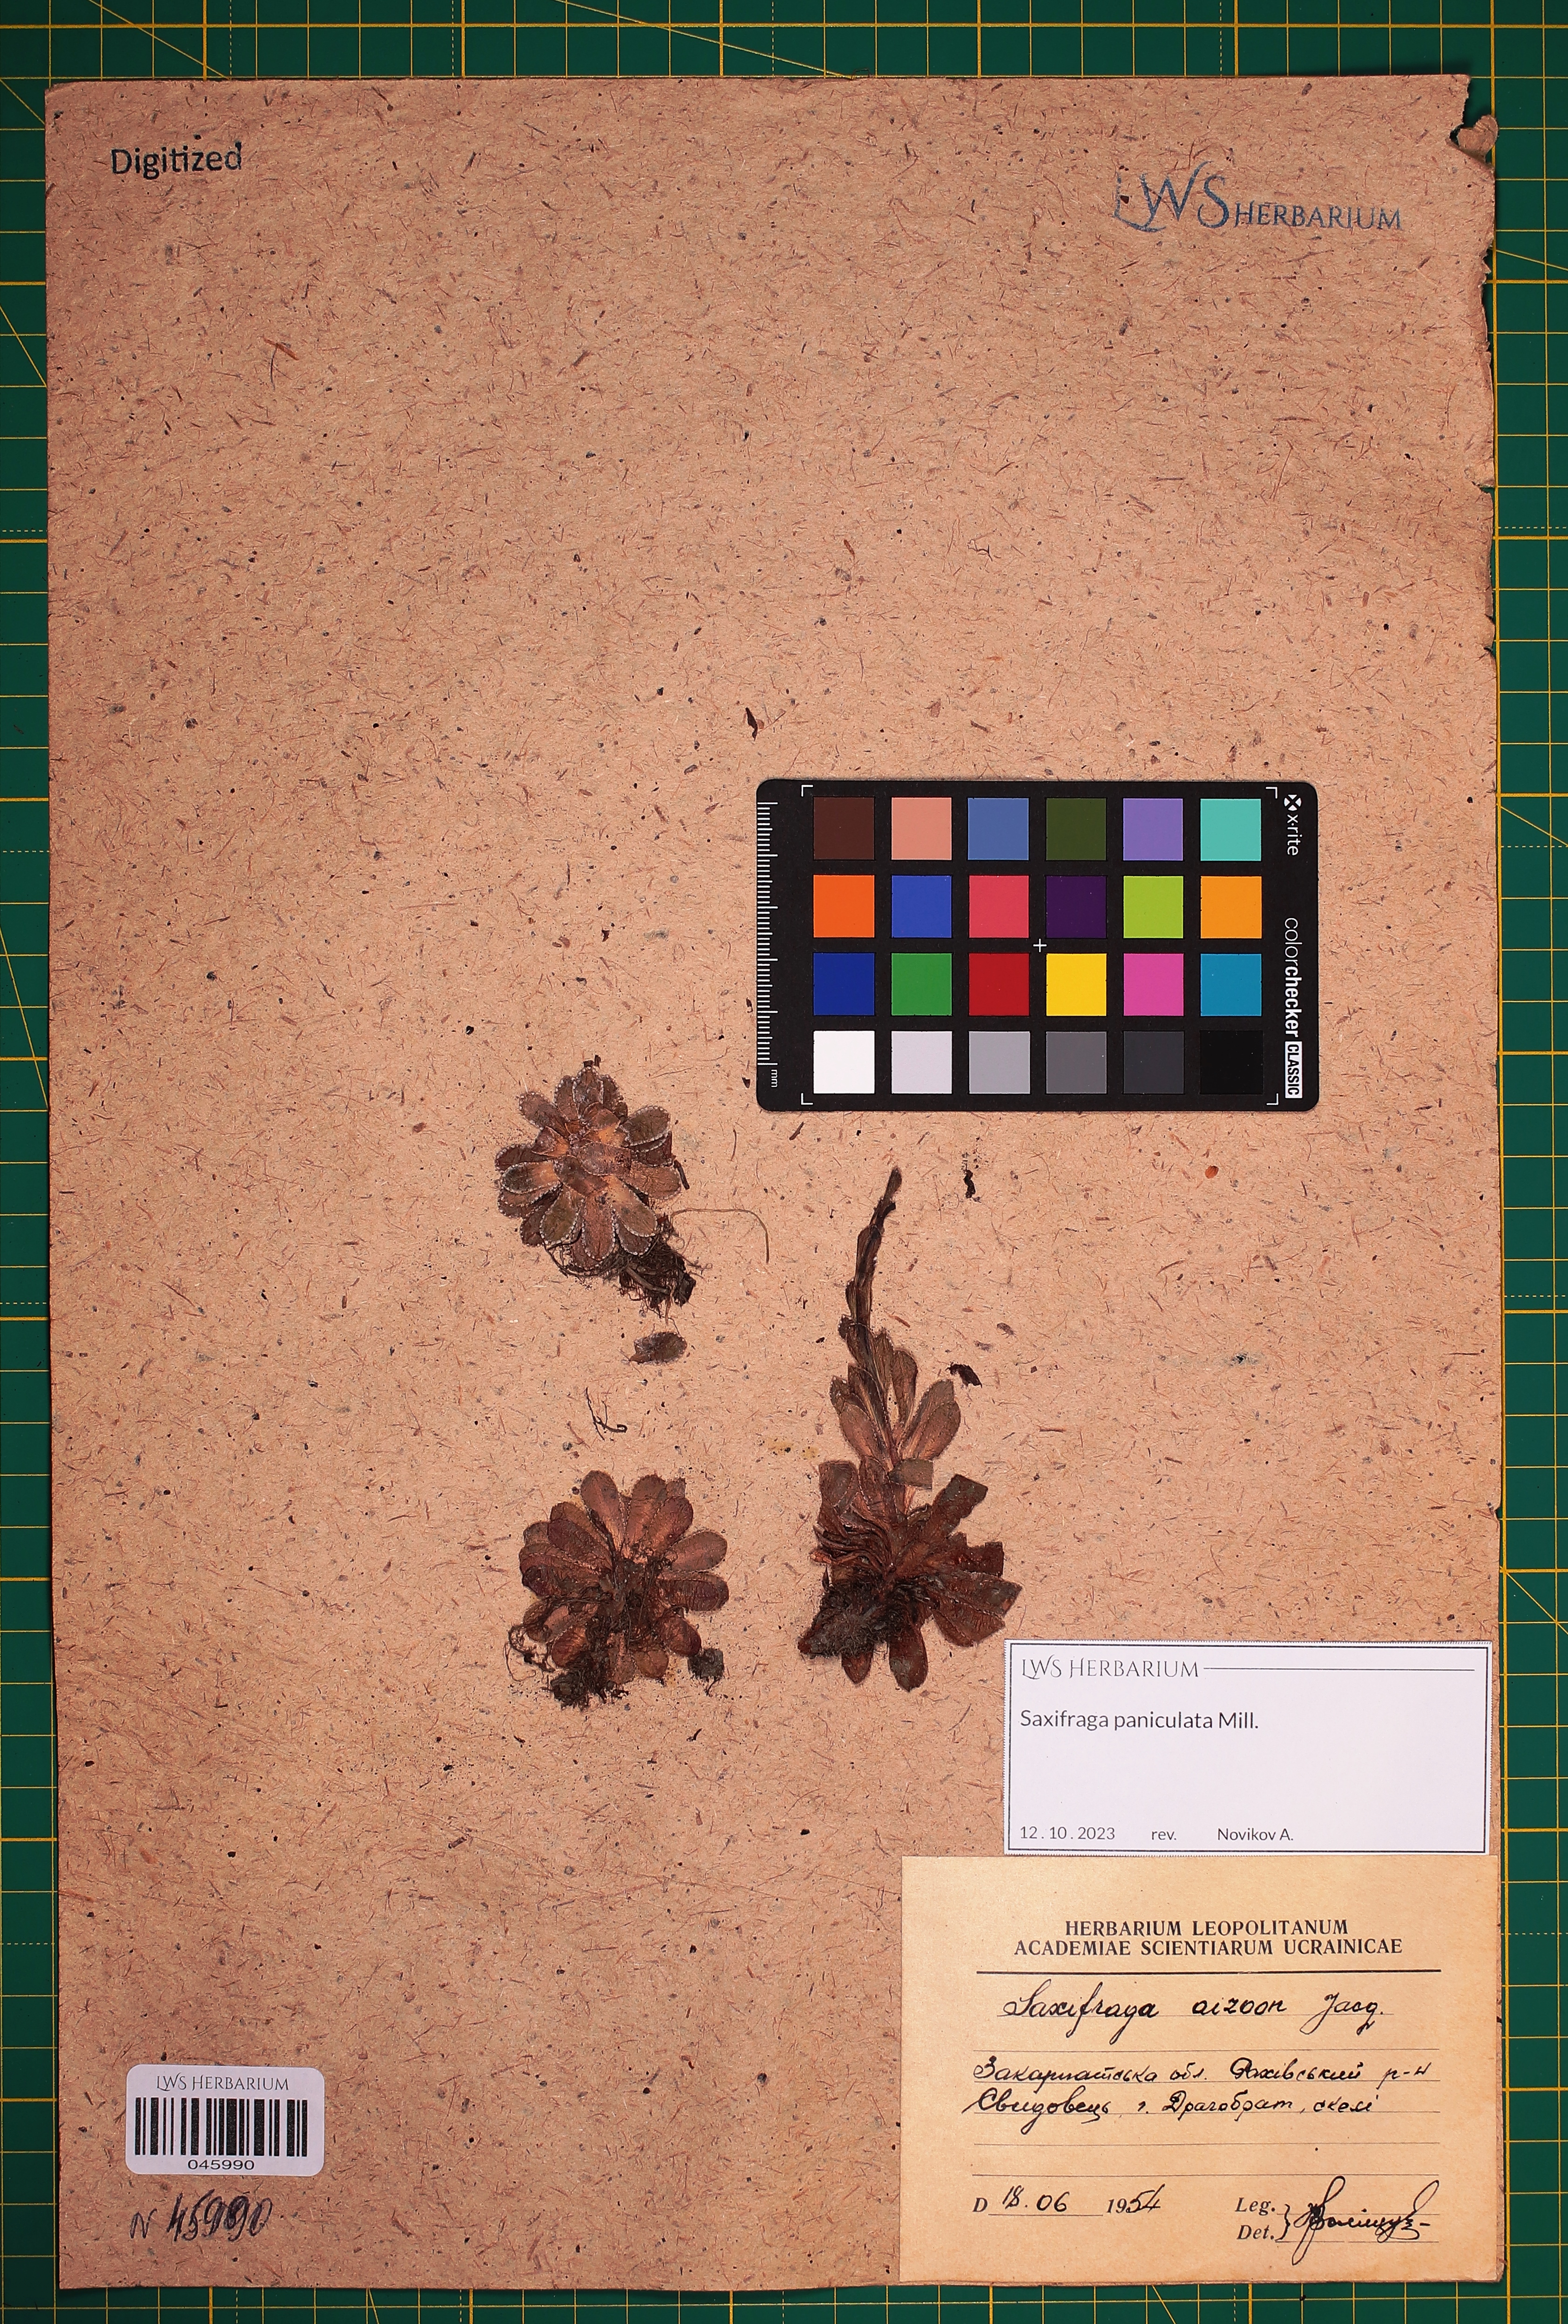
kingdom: Plantae
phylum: Tracheophyta
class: Magnoliopsida
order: Saxifragales
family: Saxifragaceae
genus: Saxifraga
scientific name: Saxifraga paniculata
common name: Livelong saxifrage
